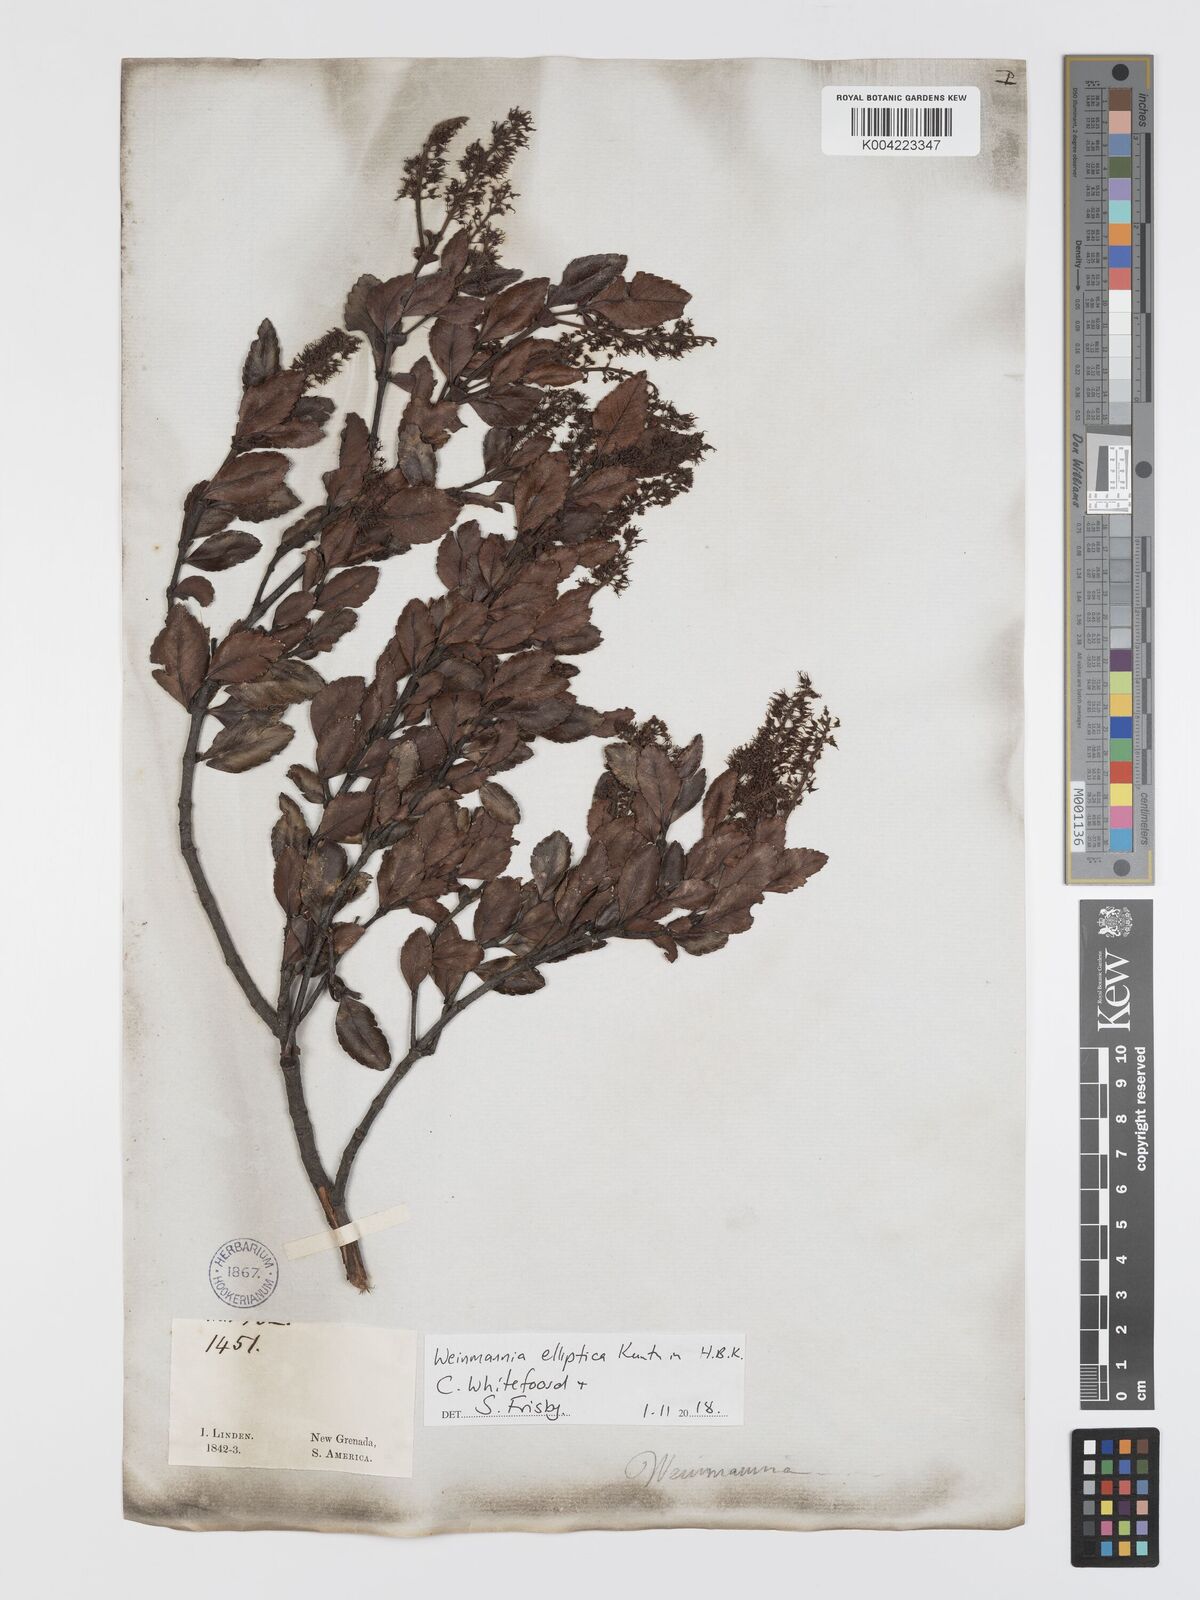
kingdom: Plantae
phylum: Tracheophyta
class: Magnoliopsida
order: Oxalidales
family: Cunoniaceae
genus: Weinmannia
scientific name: Weinmannia elliptica
